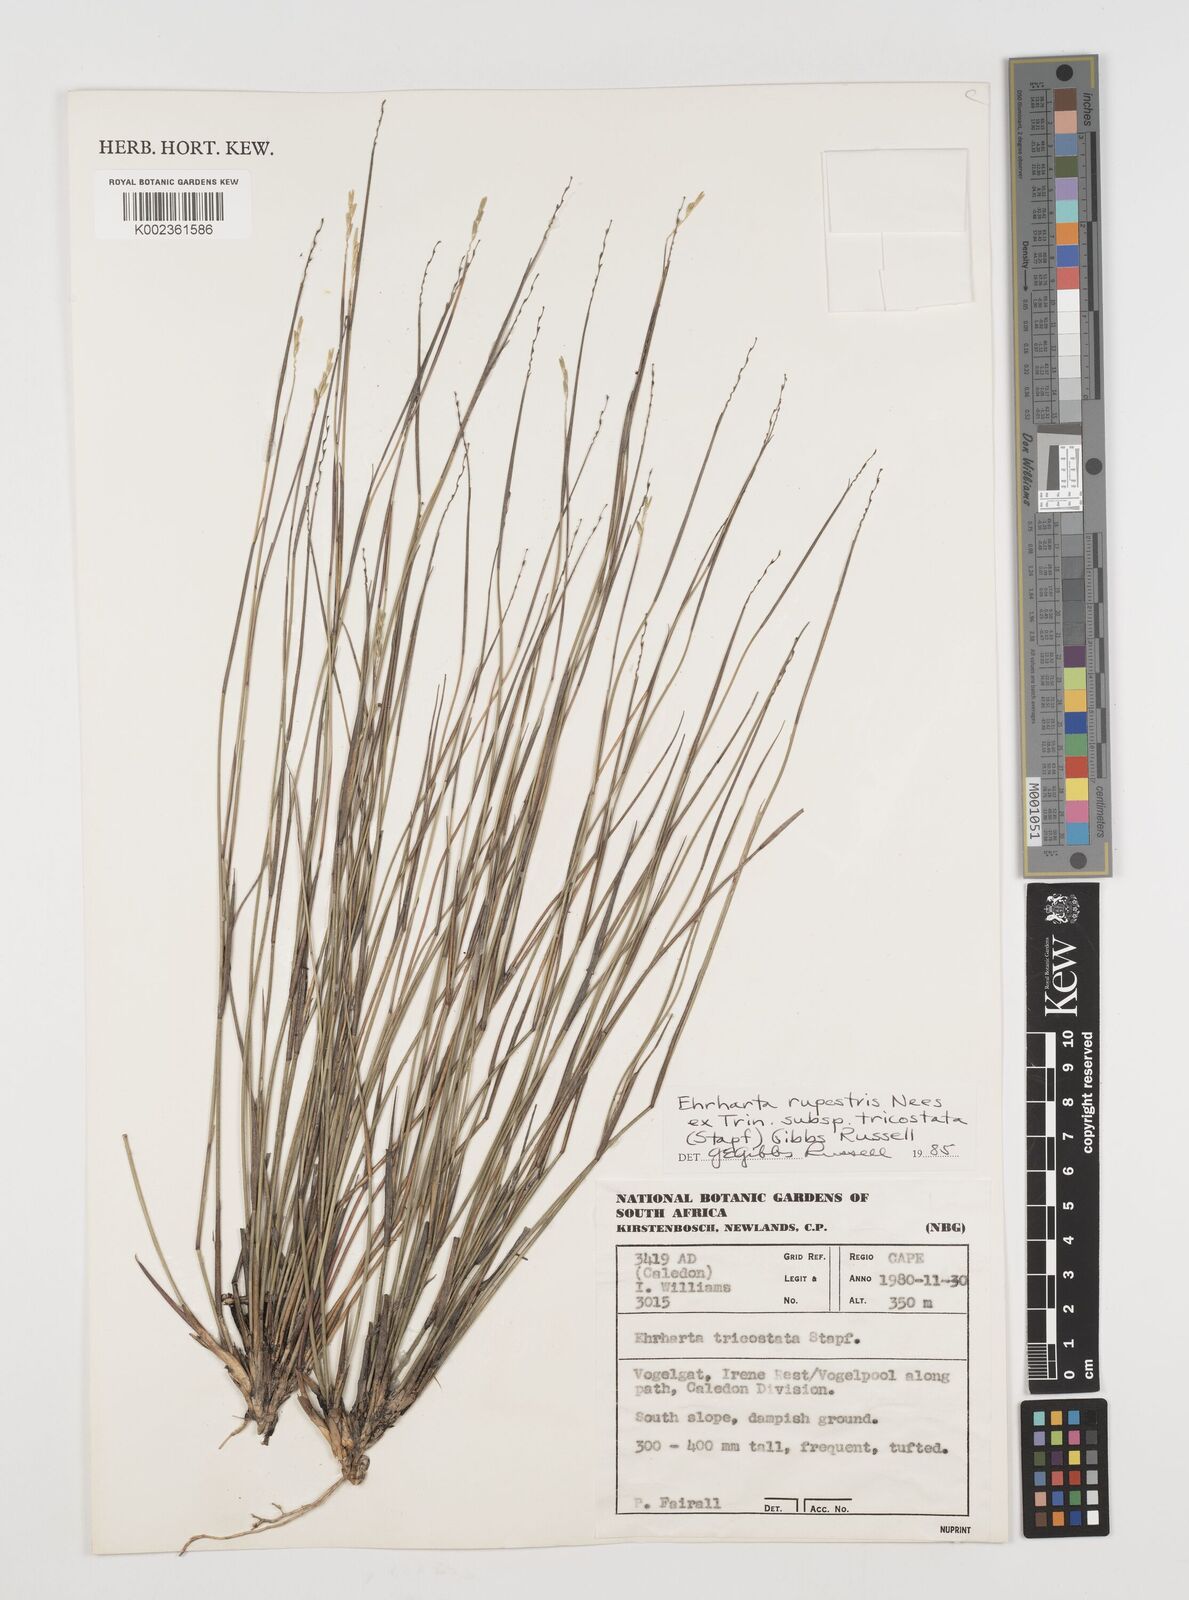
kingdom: Plantae
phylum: Tracheophyta
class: Liliopsida
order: Poales
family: Poaceae
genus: Ehrharta
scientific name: Ehrharta rupestris
